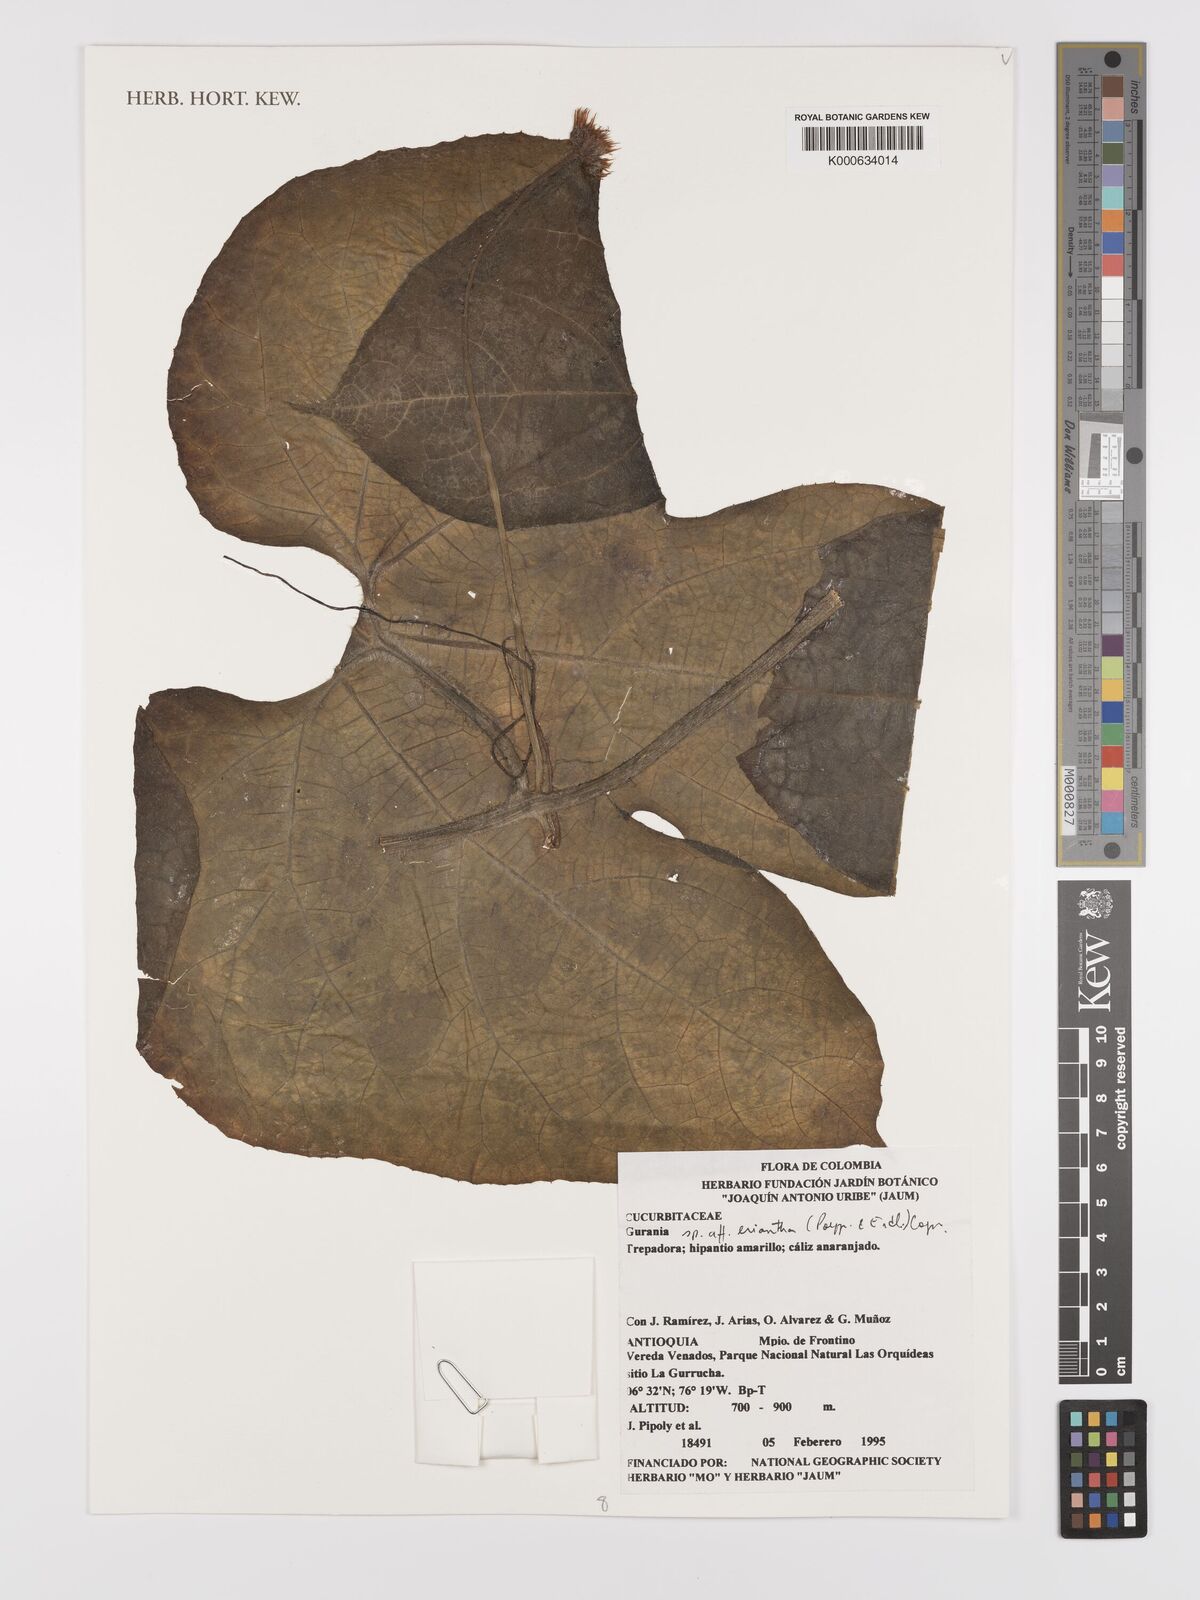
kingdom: Plantae
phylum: Tracheophyta
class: Magnoliopsida
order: Cucurbitales
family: Cucurbitaceae
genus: Gurania
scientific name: Gurania
